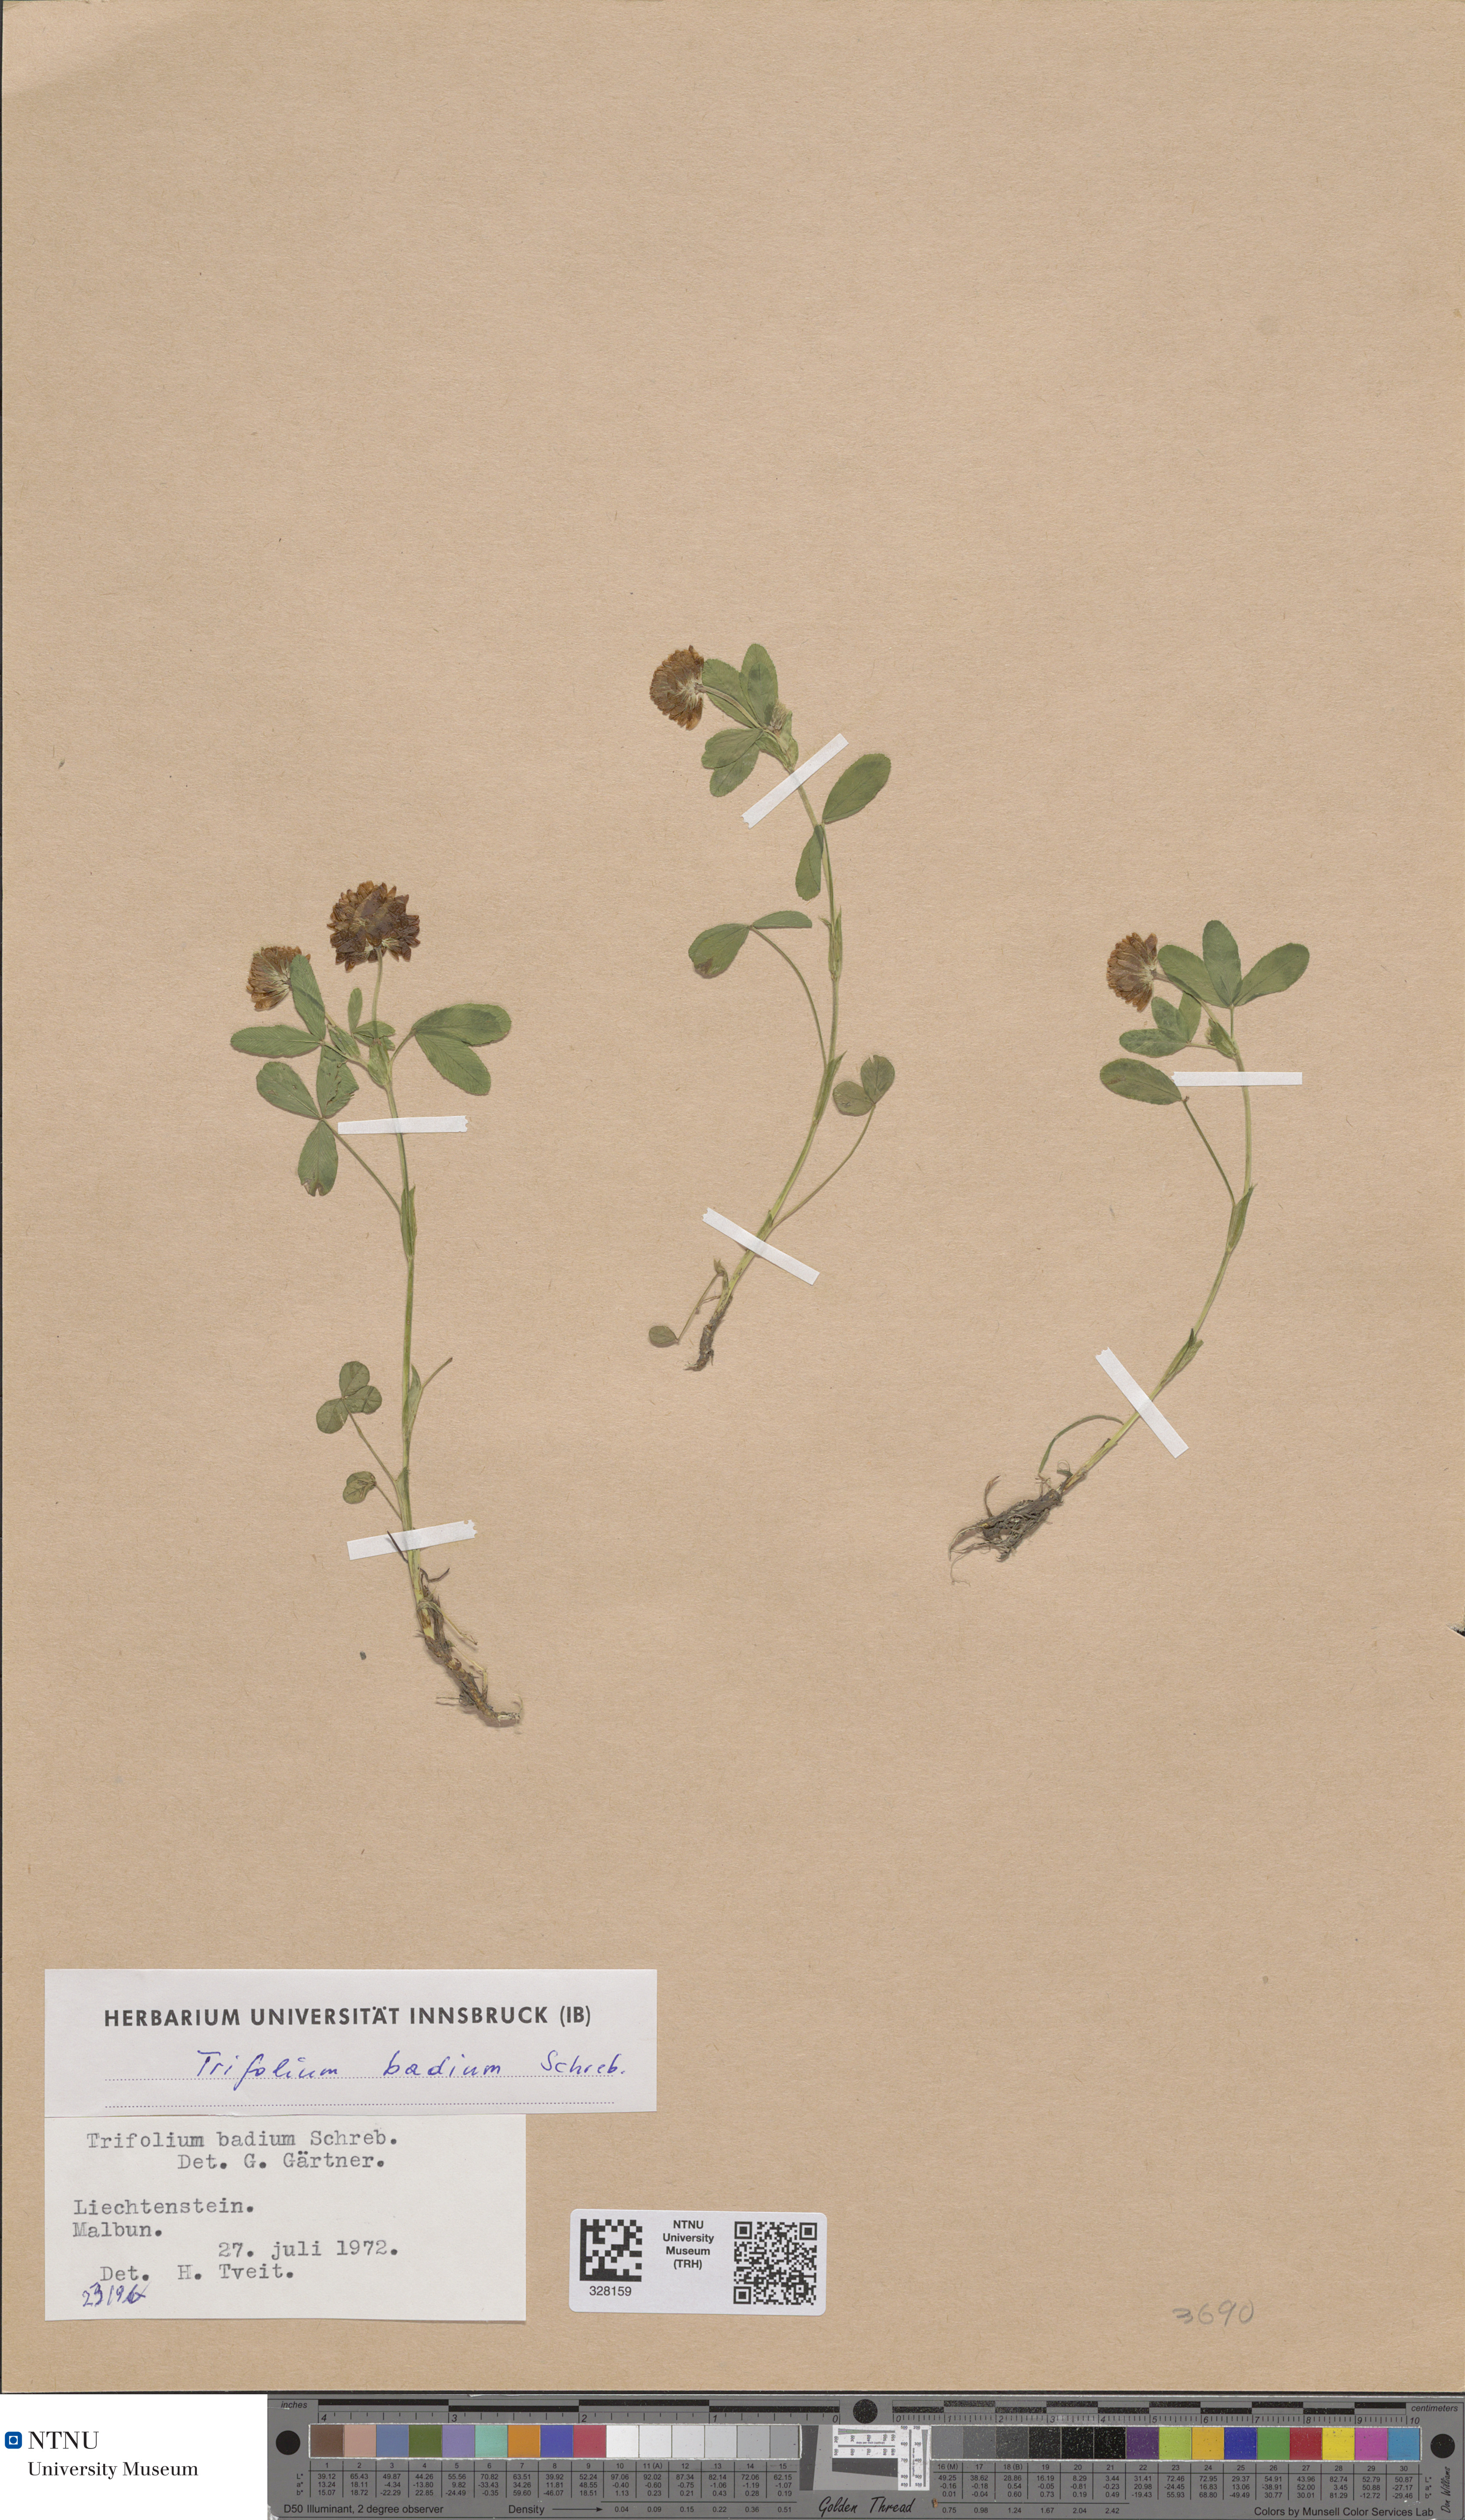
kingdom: Plantae
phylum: Tracheophyta
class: Magnoliopsida
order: Fabales
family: Fabaceae
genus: Trifolium
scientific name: Trifolium badium
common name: Brown clover
